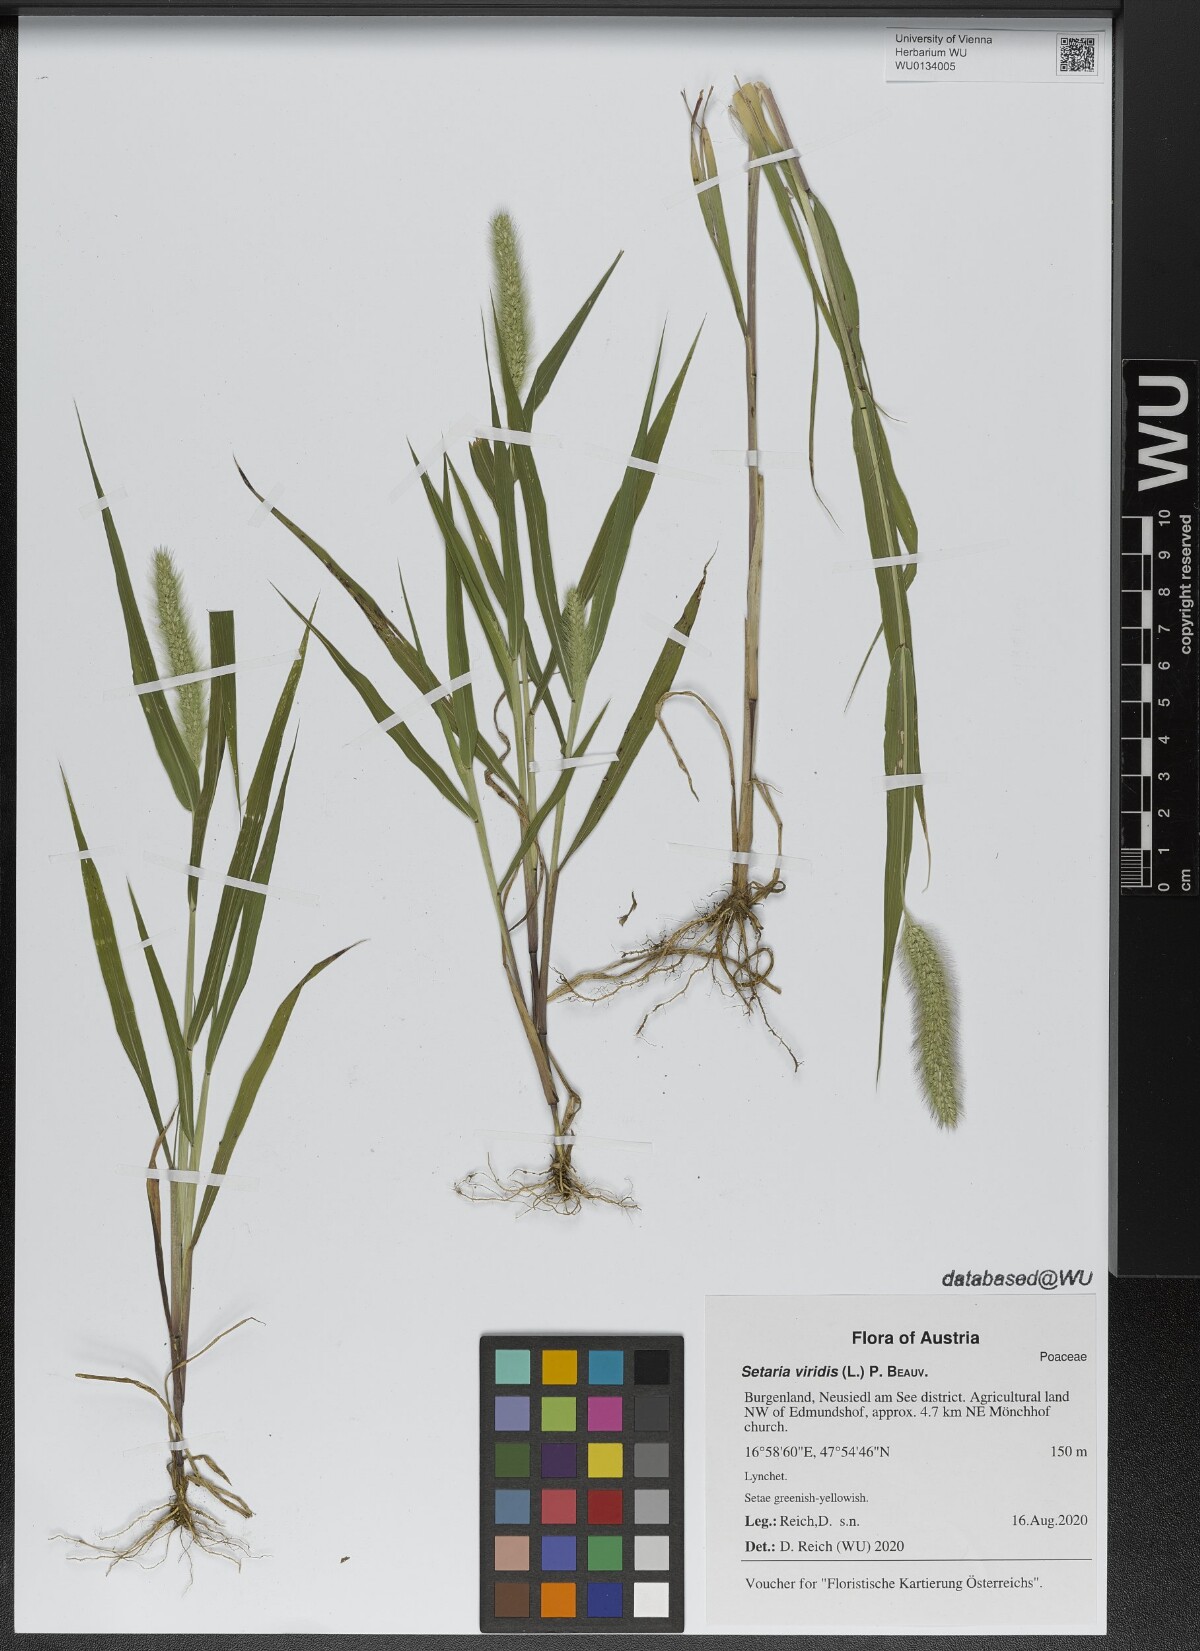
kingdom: Plantae
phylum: Tracheophyta
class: Liliopsida
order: Poales
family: Poaceae
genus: Setaria
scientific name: Setaria viridis
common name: Green bristlegrass
